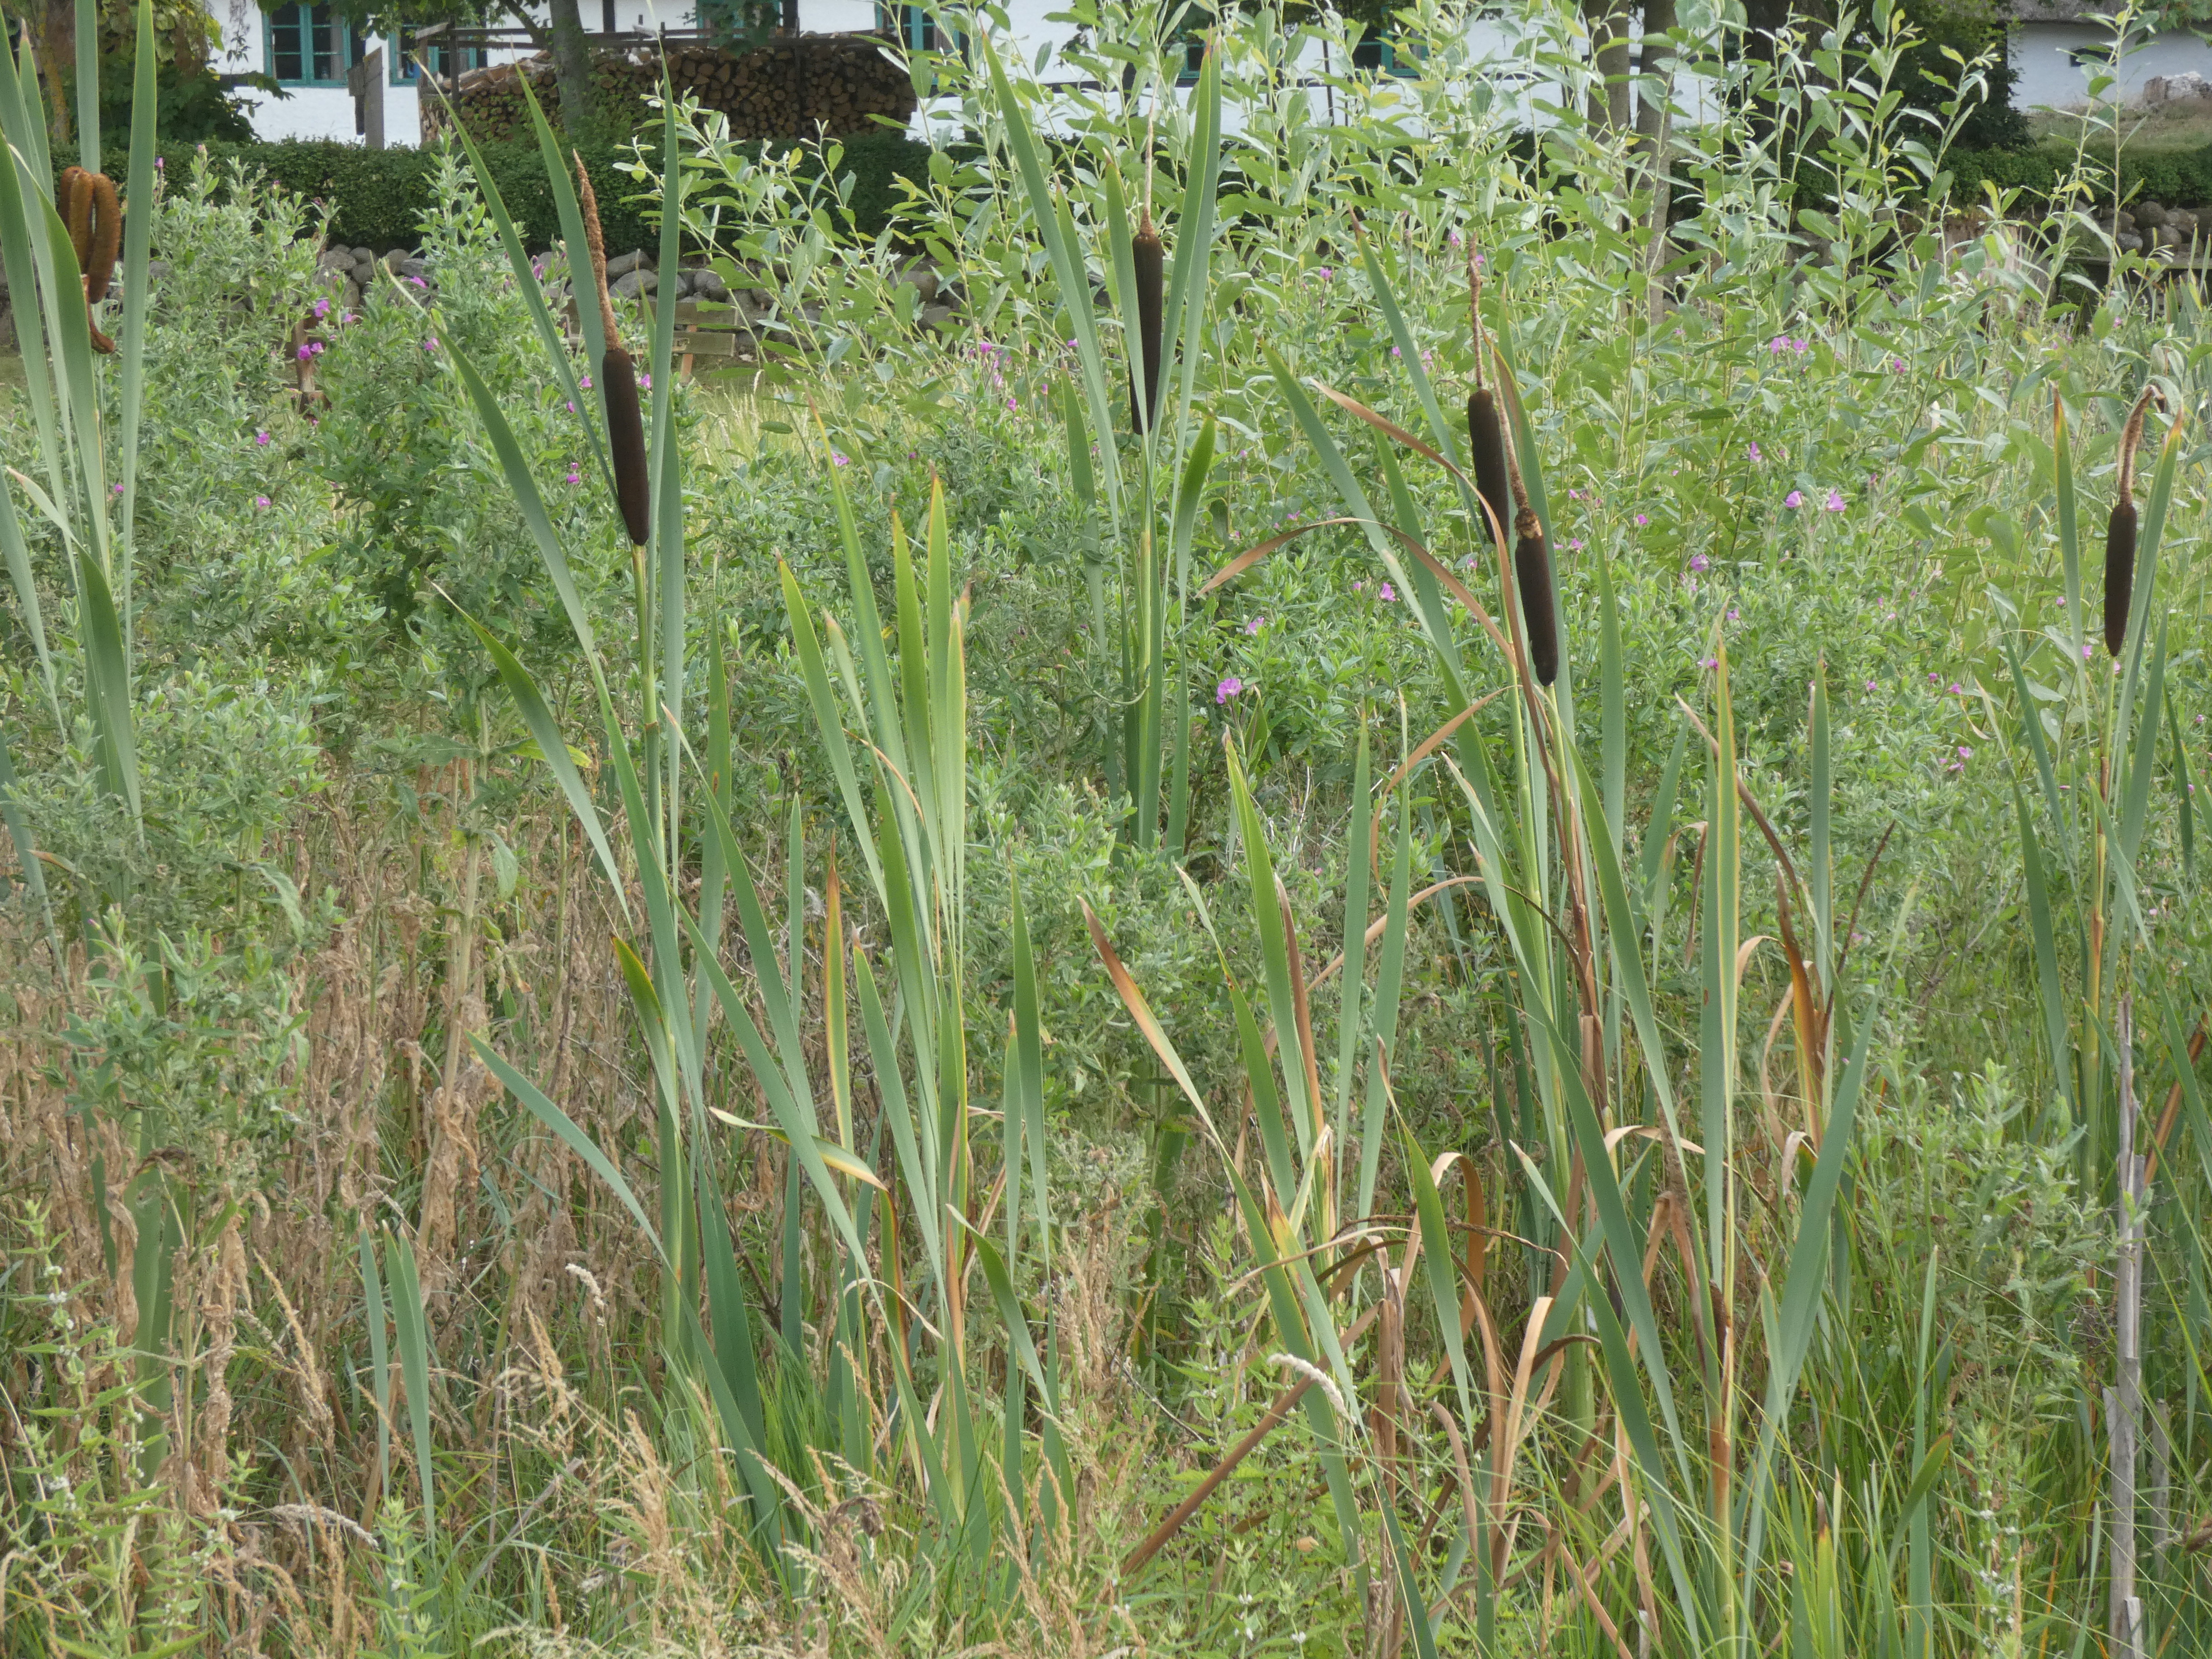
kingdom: Plantae
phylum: Tracheophyta
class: Liliopsida
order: Poales
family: Typhaceae
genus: Typha
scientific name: Typha latifolia
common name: Bredbladet dunhammer
